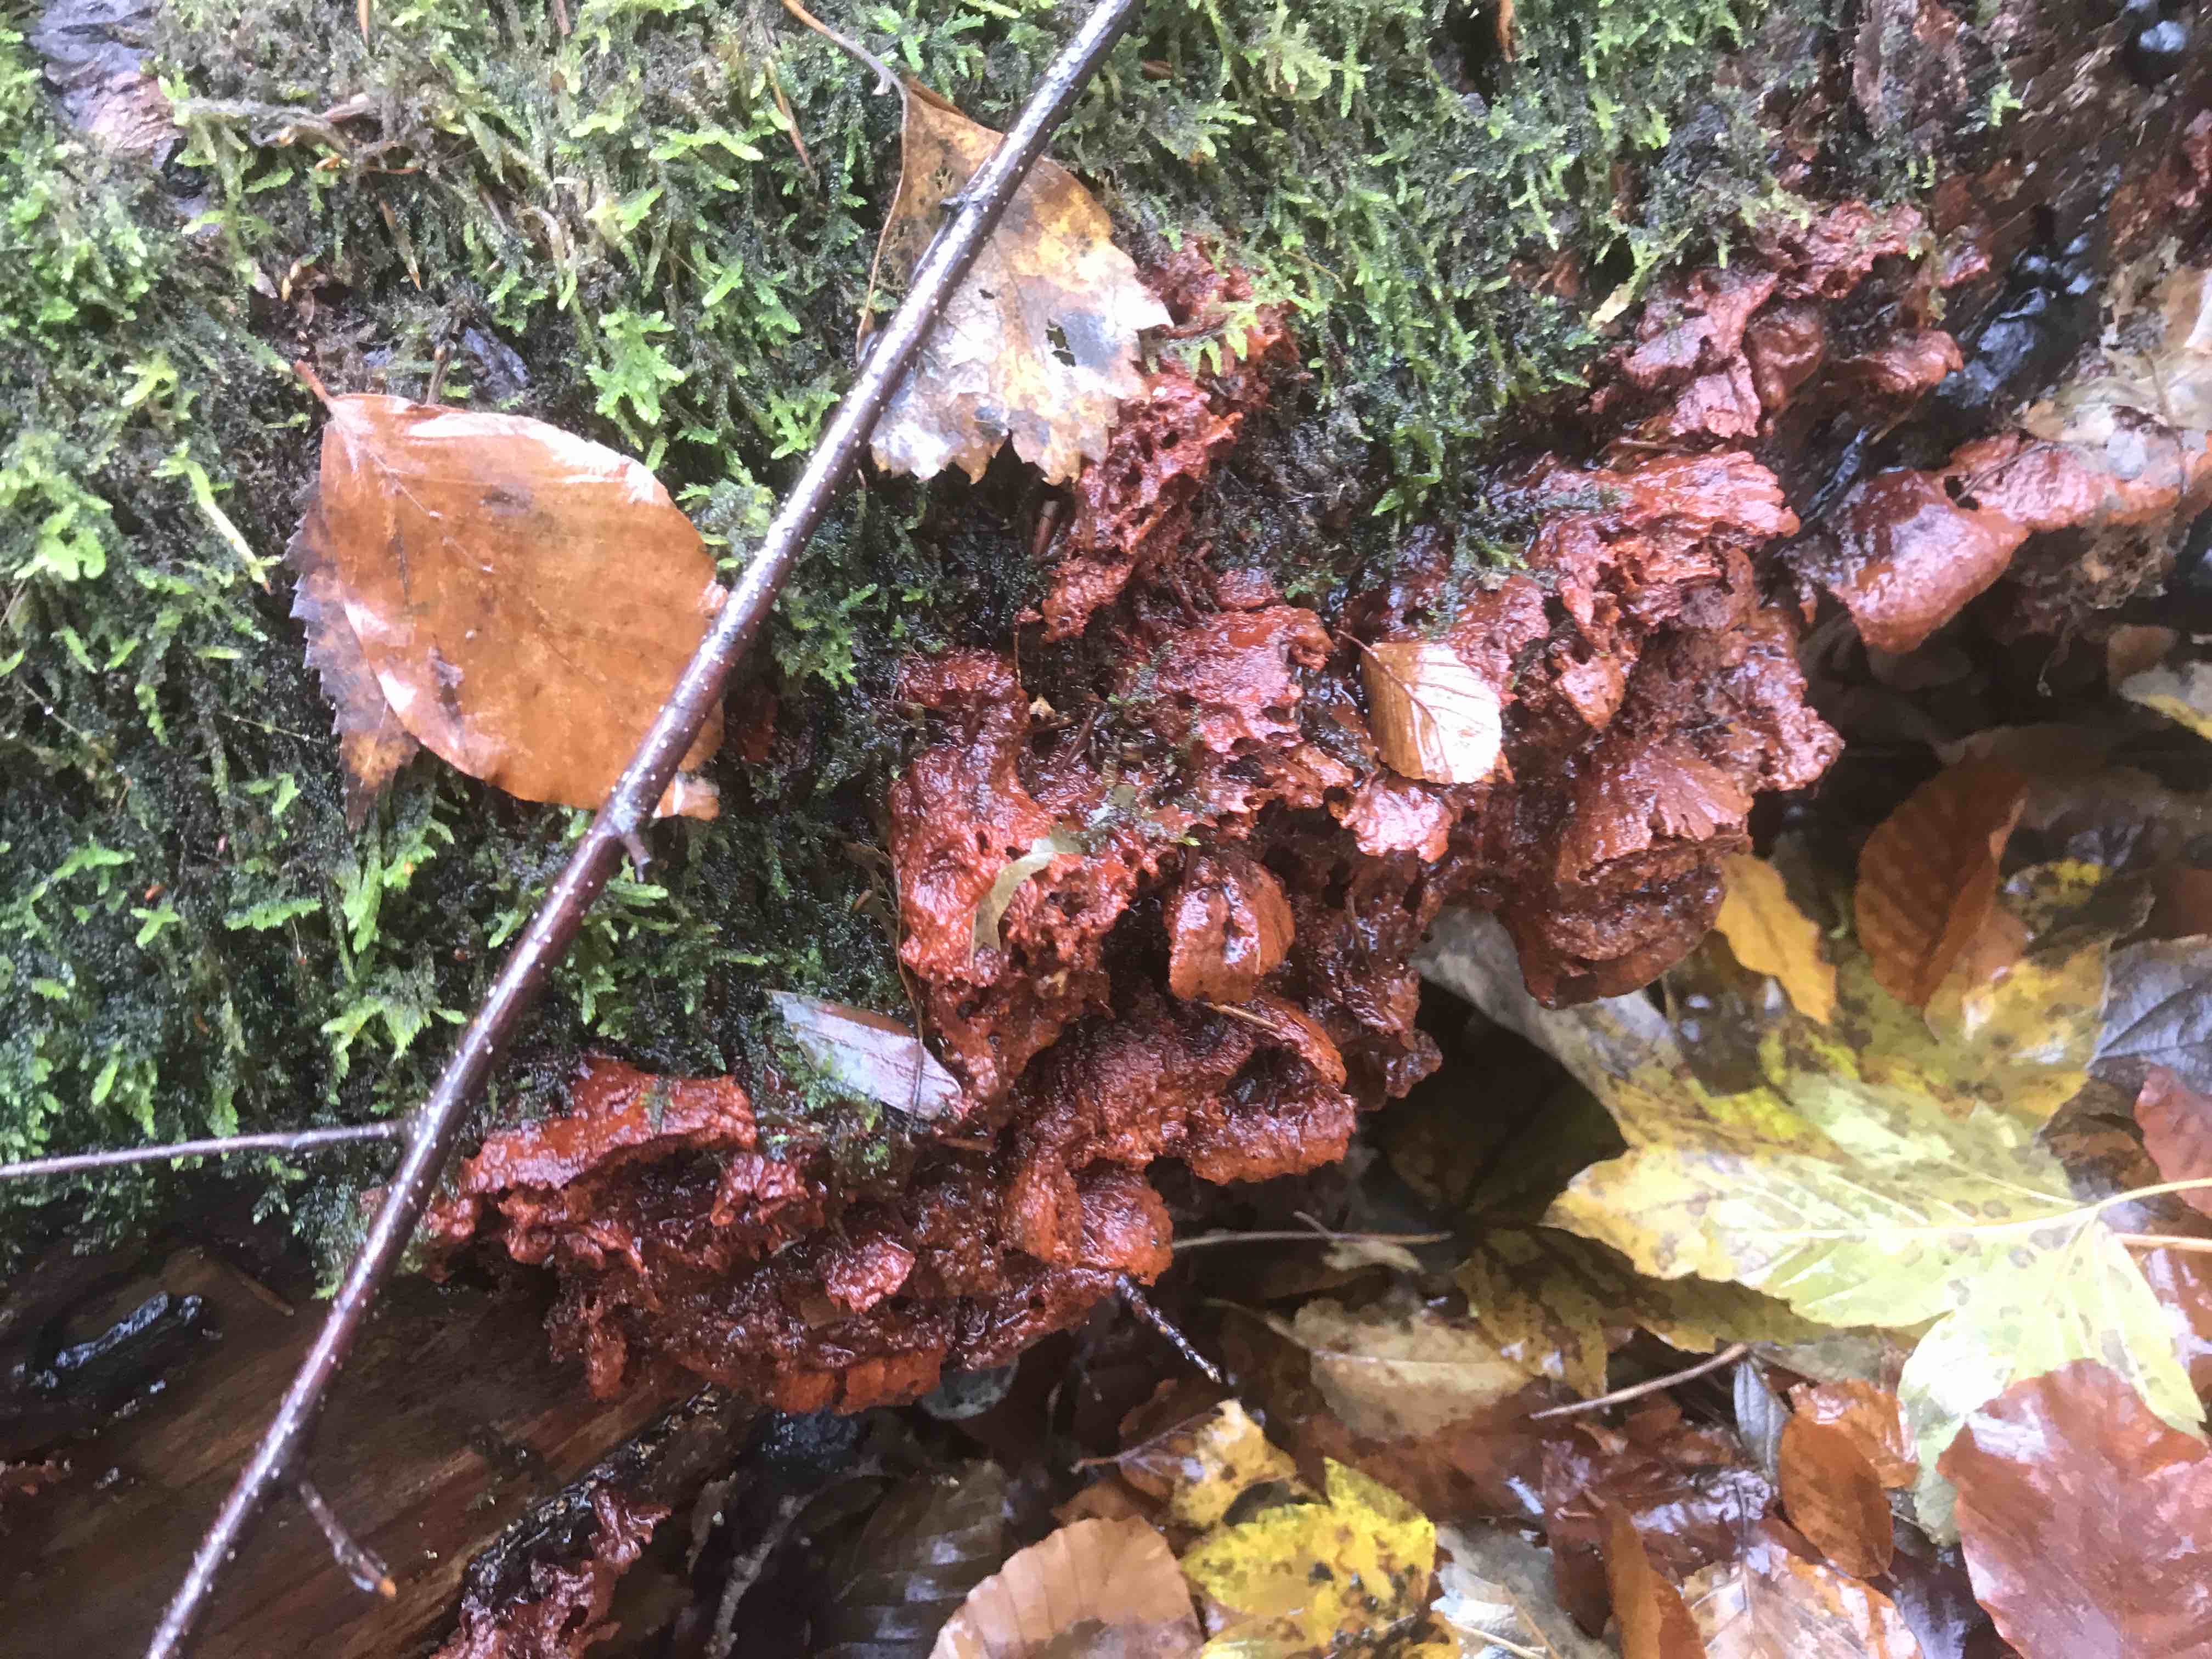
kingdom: Fungi
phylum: Basidiomycota
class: Agaricomycetes
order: Polyporales
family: Pycnoporellaceae
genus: Pycnoporellus
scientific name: Pycnoporellus fulgens
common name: flammeporesvamp
